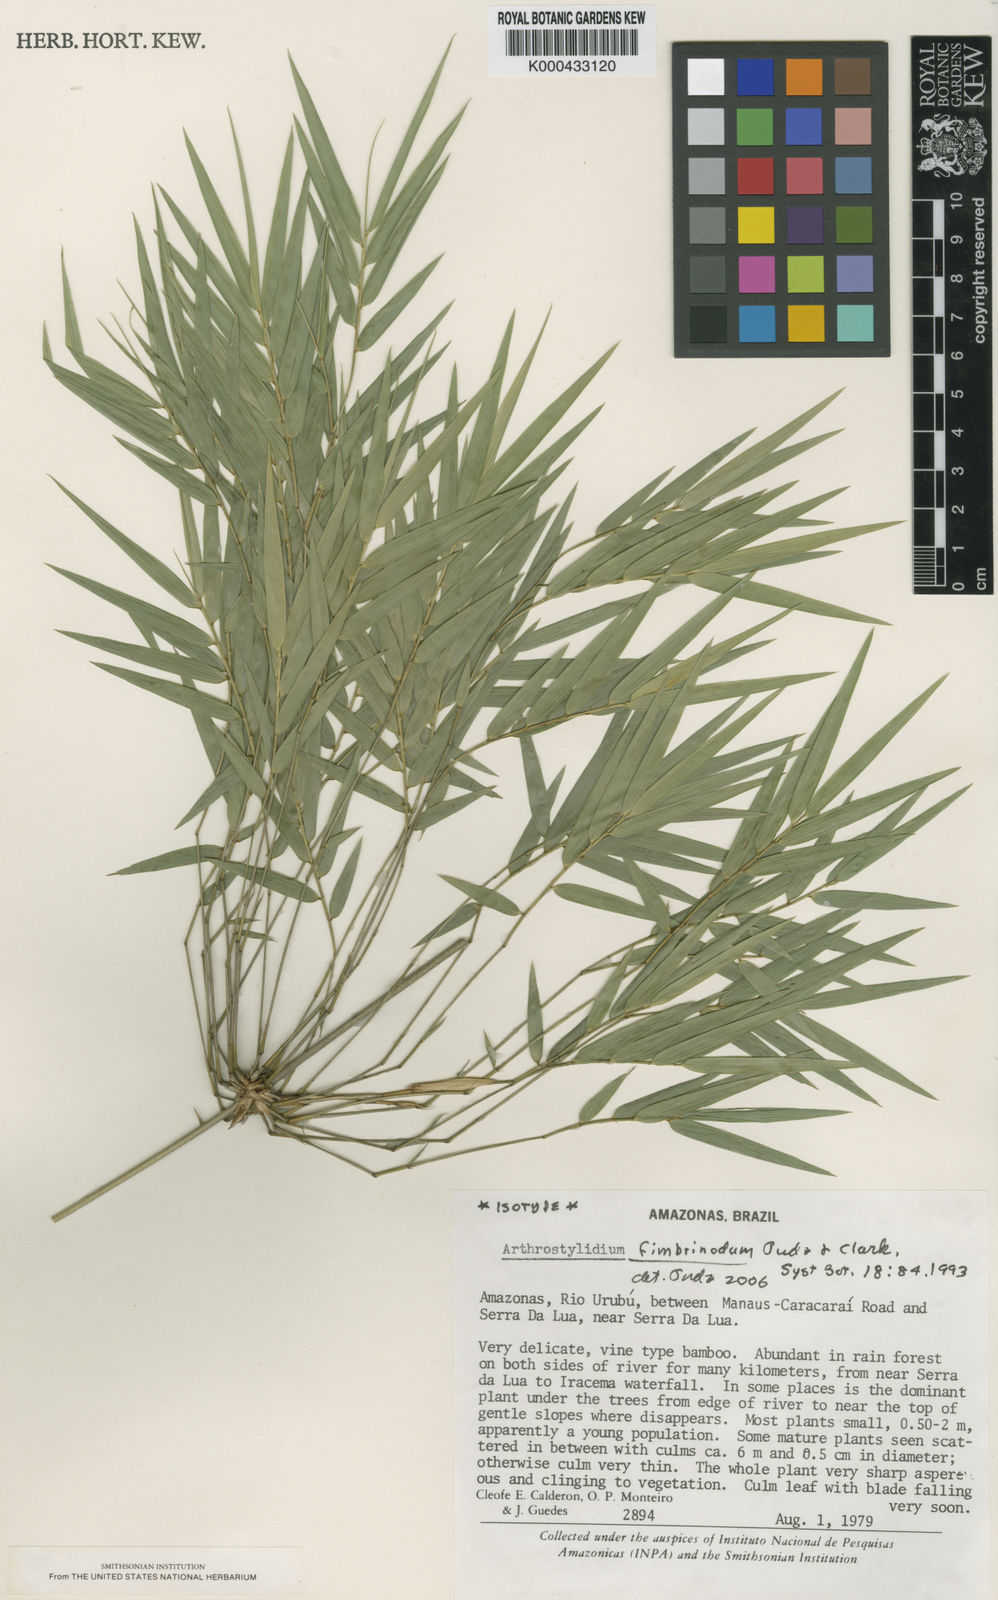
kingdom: Plantae
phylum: Tracheophyta
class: Liliopsida
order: Poales
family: Poaceae
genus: Arthrostylidium
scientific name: Arthrostylidium fimbrinodum
